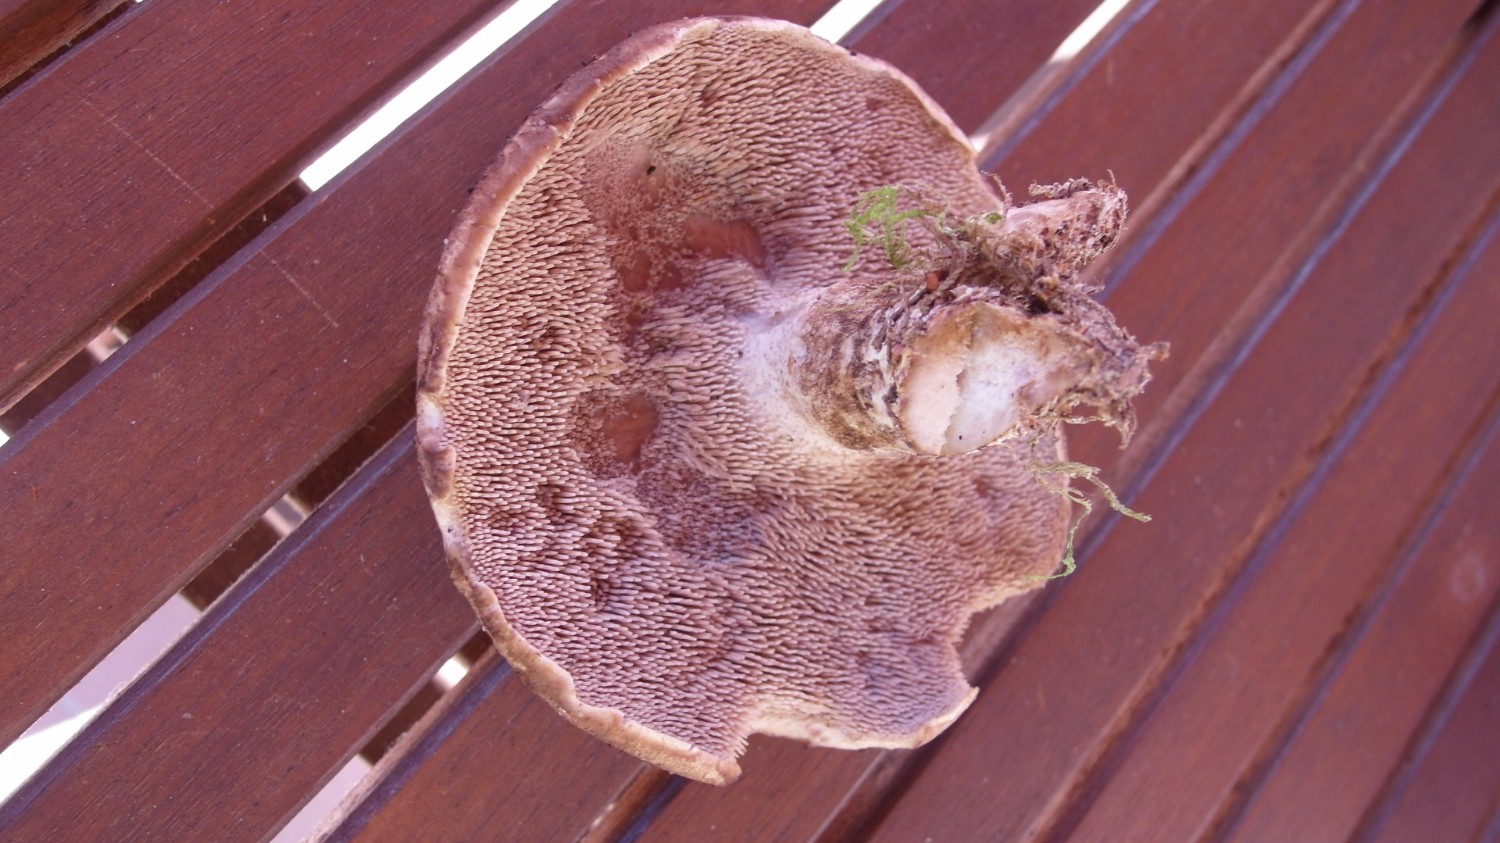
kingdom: Fungi
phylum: Basidiomycota
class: Agaricomycetes
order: Thelephorales
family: Bankeraceae
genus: Sarcodon
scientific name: Sarcodon squamosus
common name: småskællet kødpigsvamp
